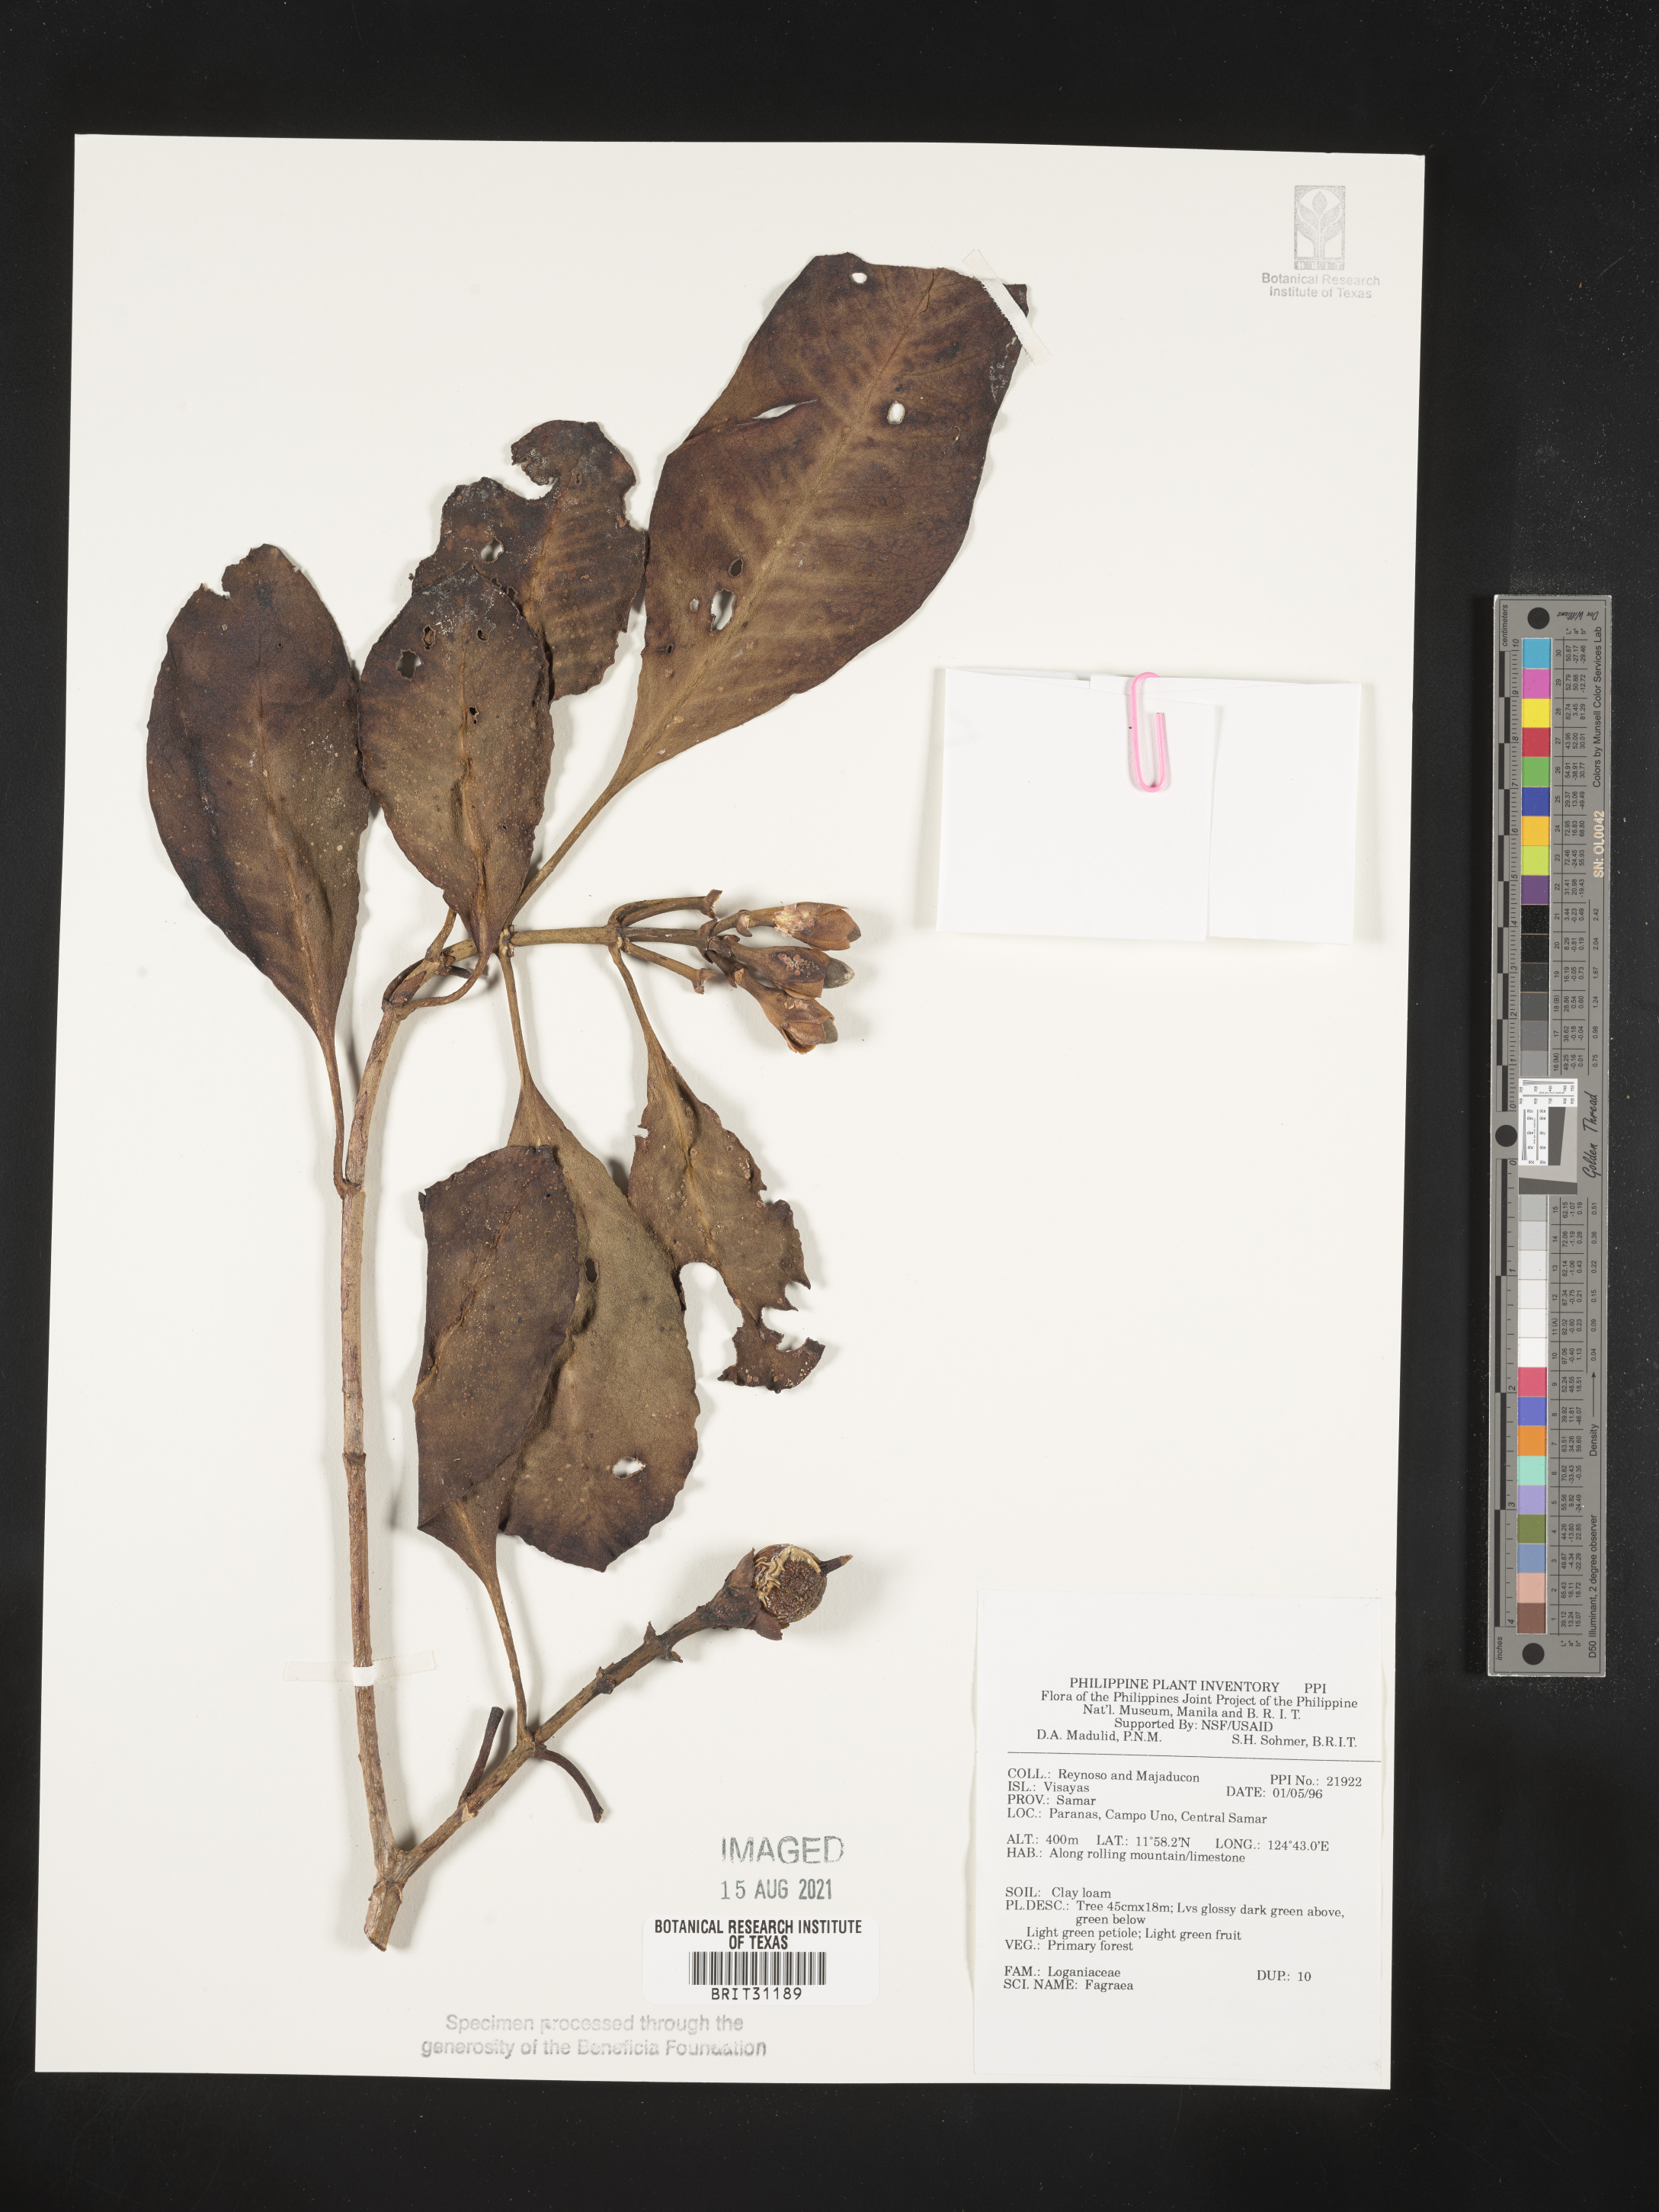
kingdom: Plantae
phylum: Tracheophyta
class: Magnoliopsida
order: Gentianales
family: Gentianaceae
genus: Fagraea
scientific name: Fagraea
